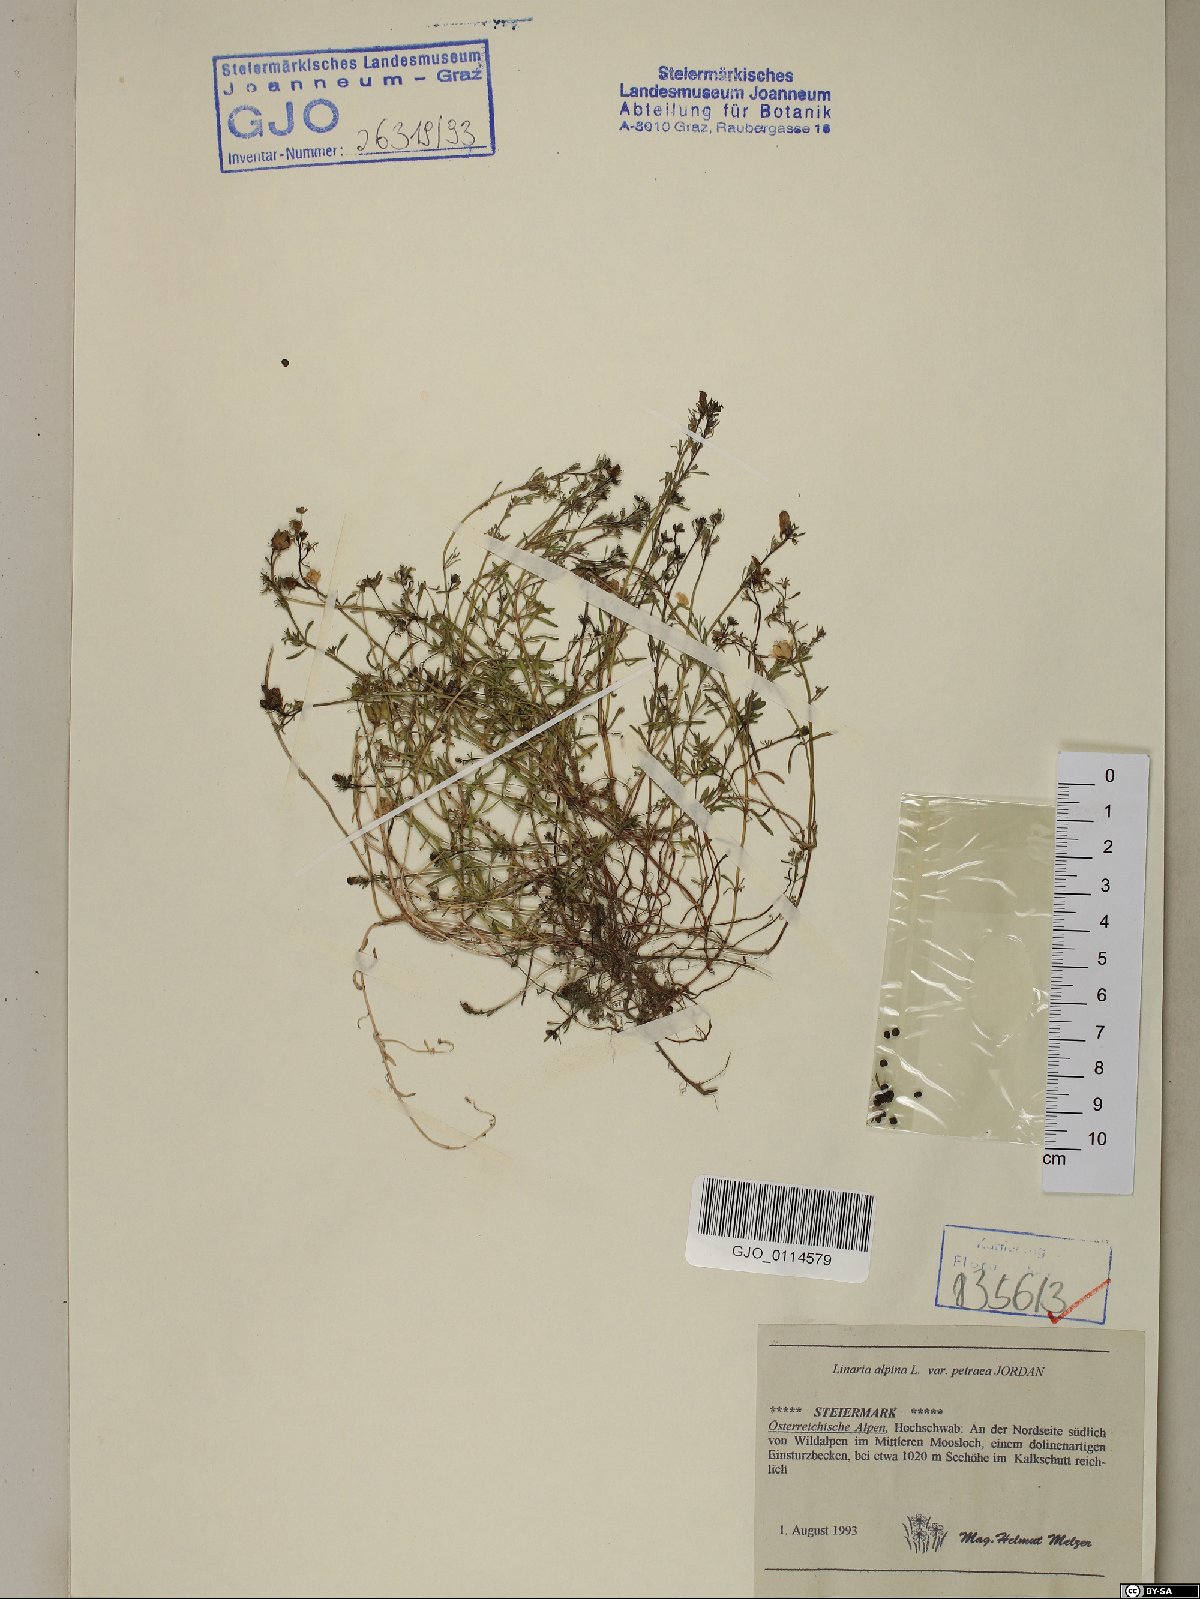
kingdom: Plantae
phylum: Tracheophyta
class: Magnoliopsida
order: Lamiales
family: Plantaginaceae
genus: Linaria
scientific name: Linaria alpina
